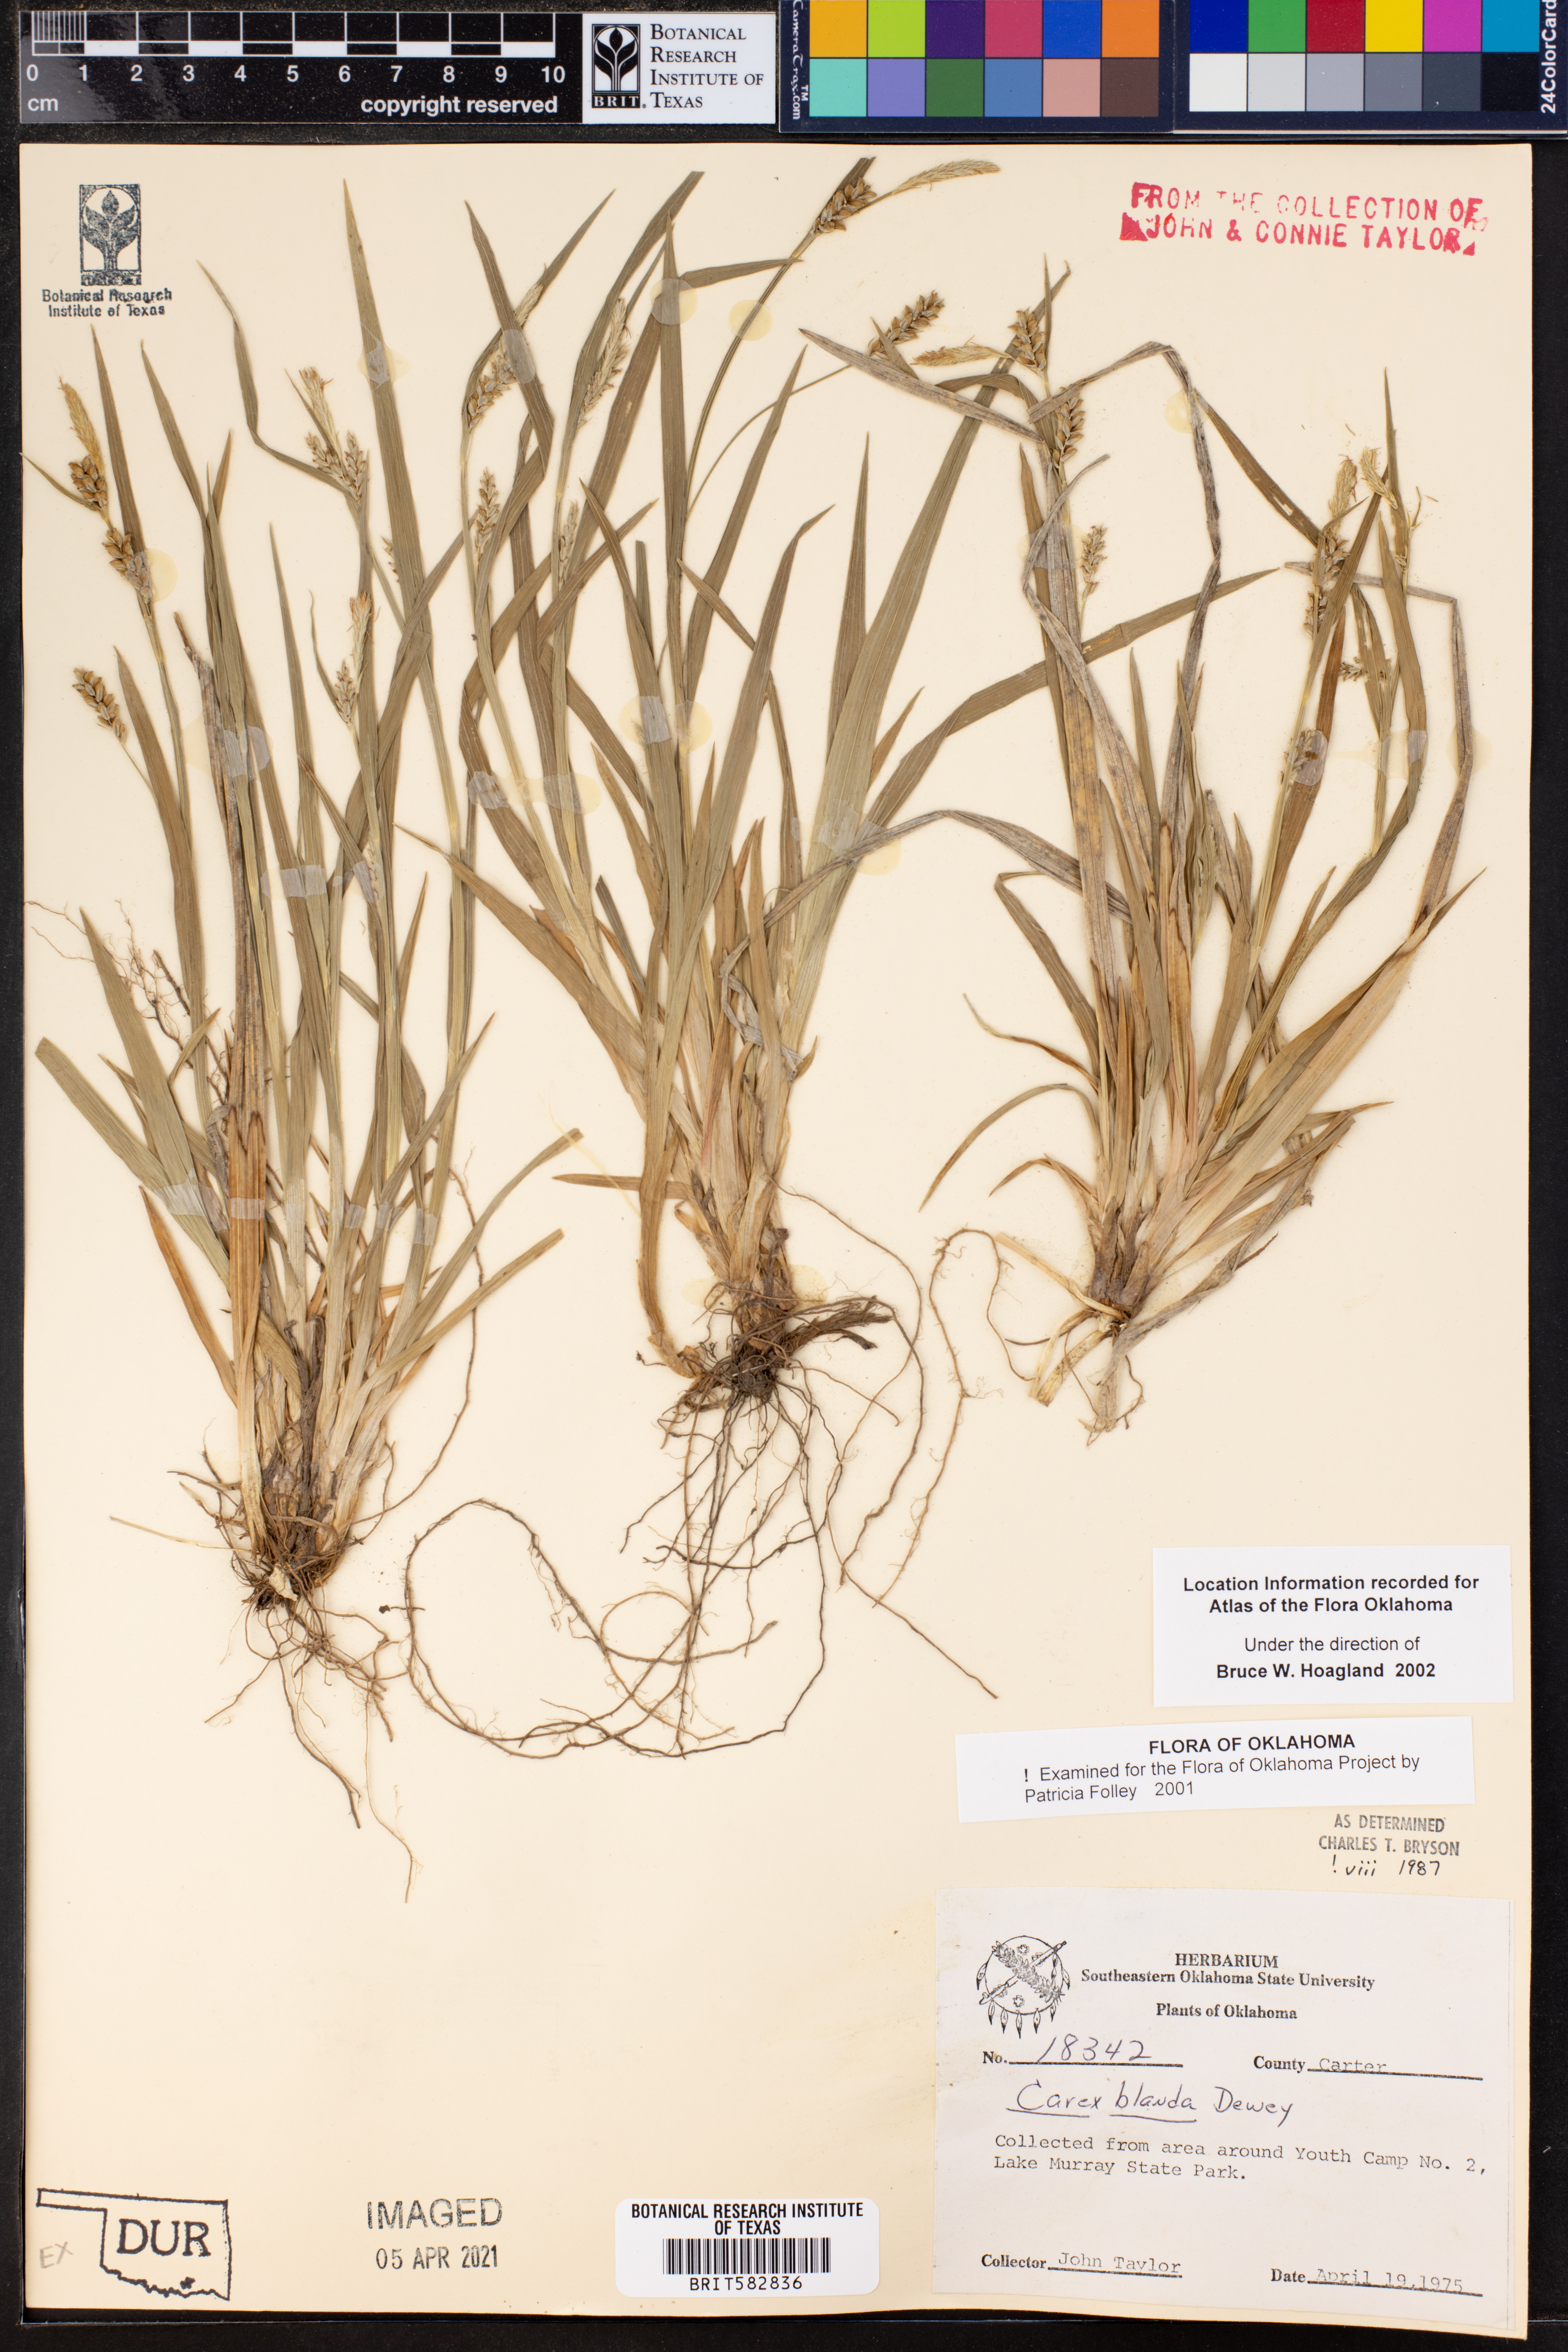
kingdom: Plantae
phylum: Tracheophyta
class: Liliopsida
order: Poales
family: Cyperaceae
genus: Carex
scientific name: Carex blanda
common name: Bland sedge
